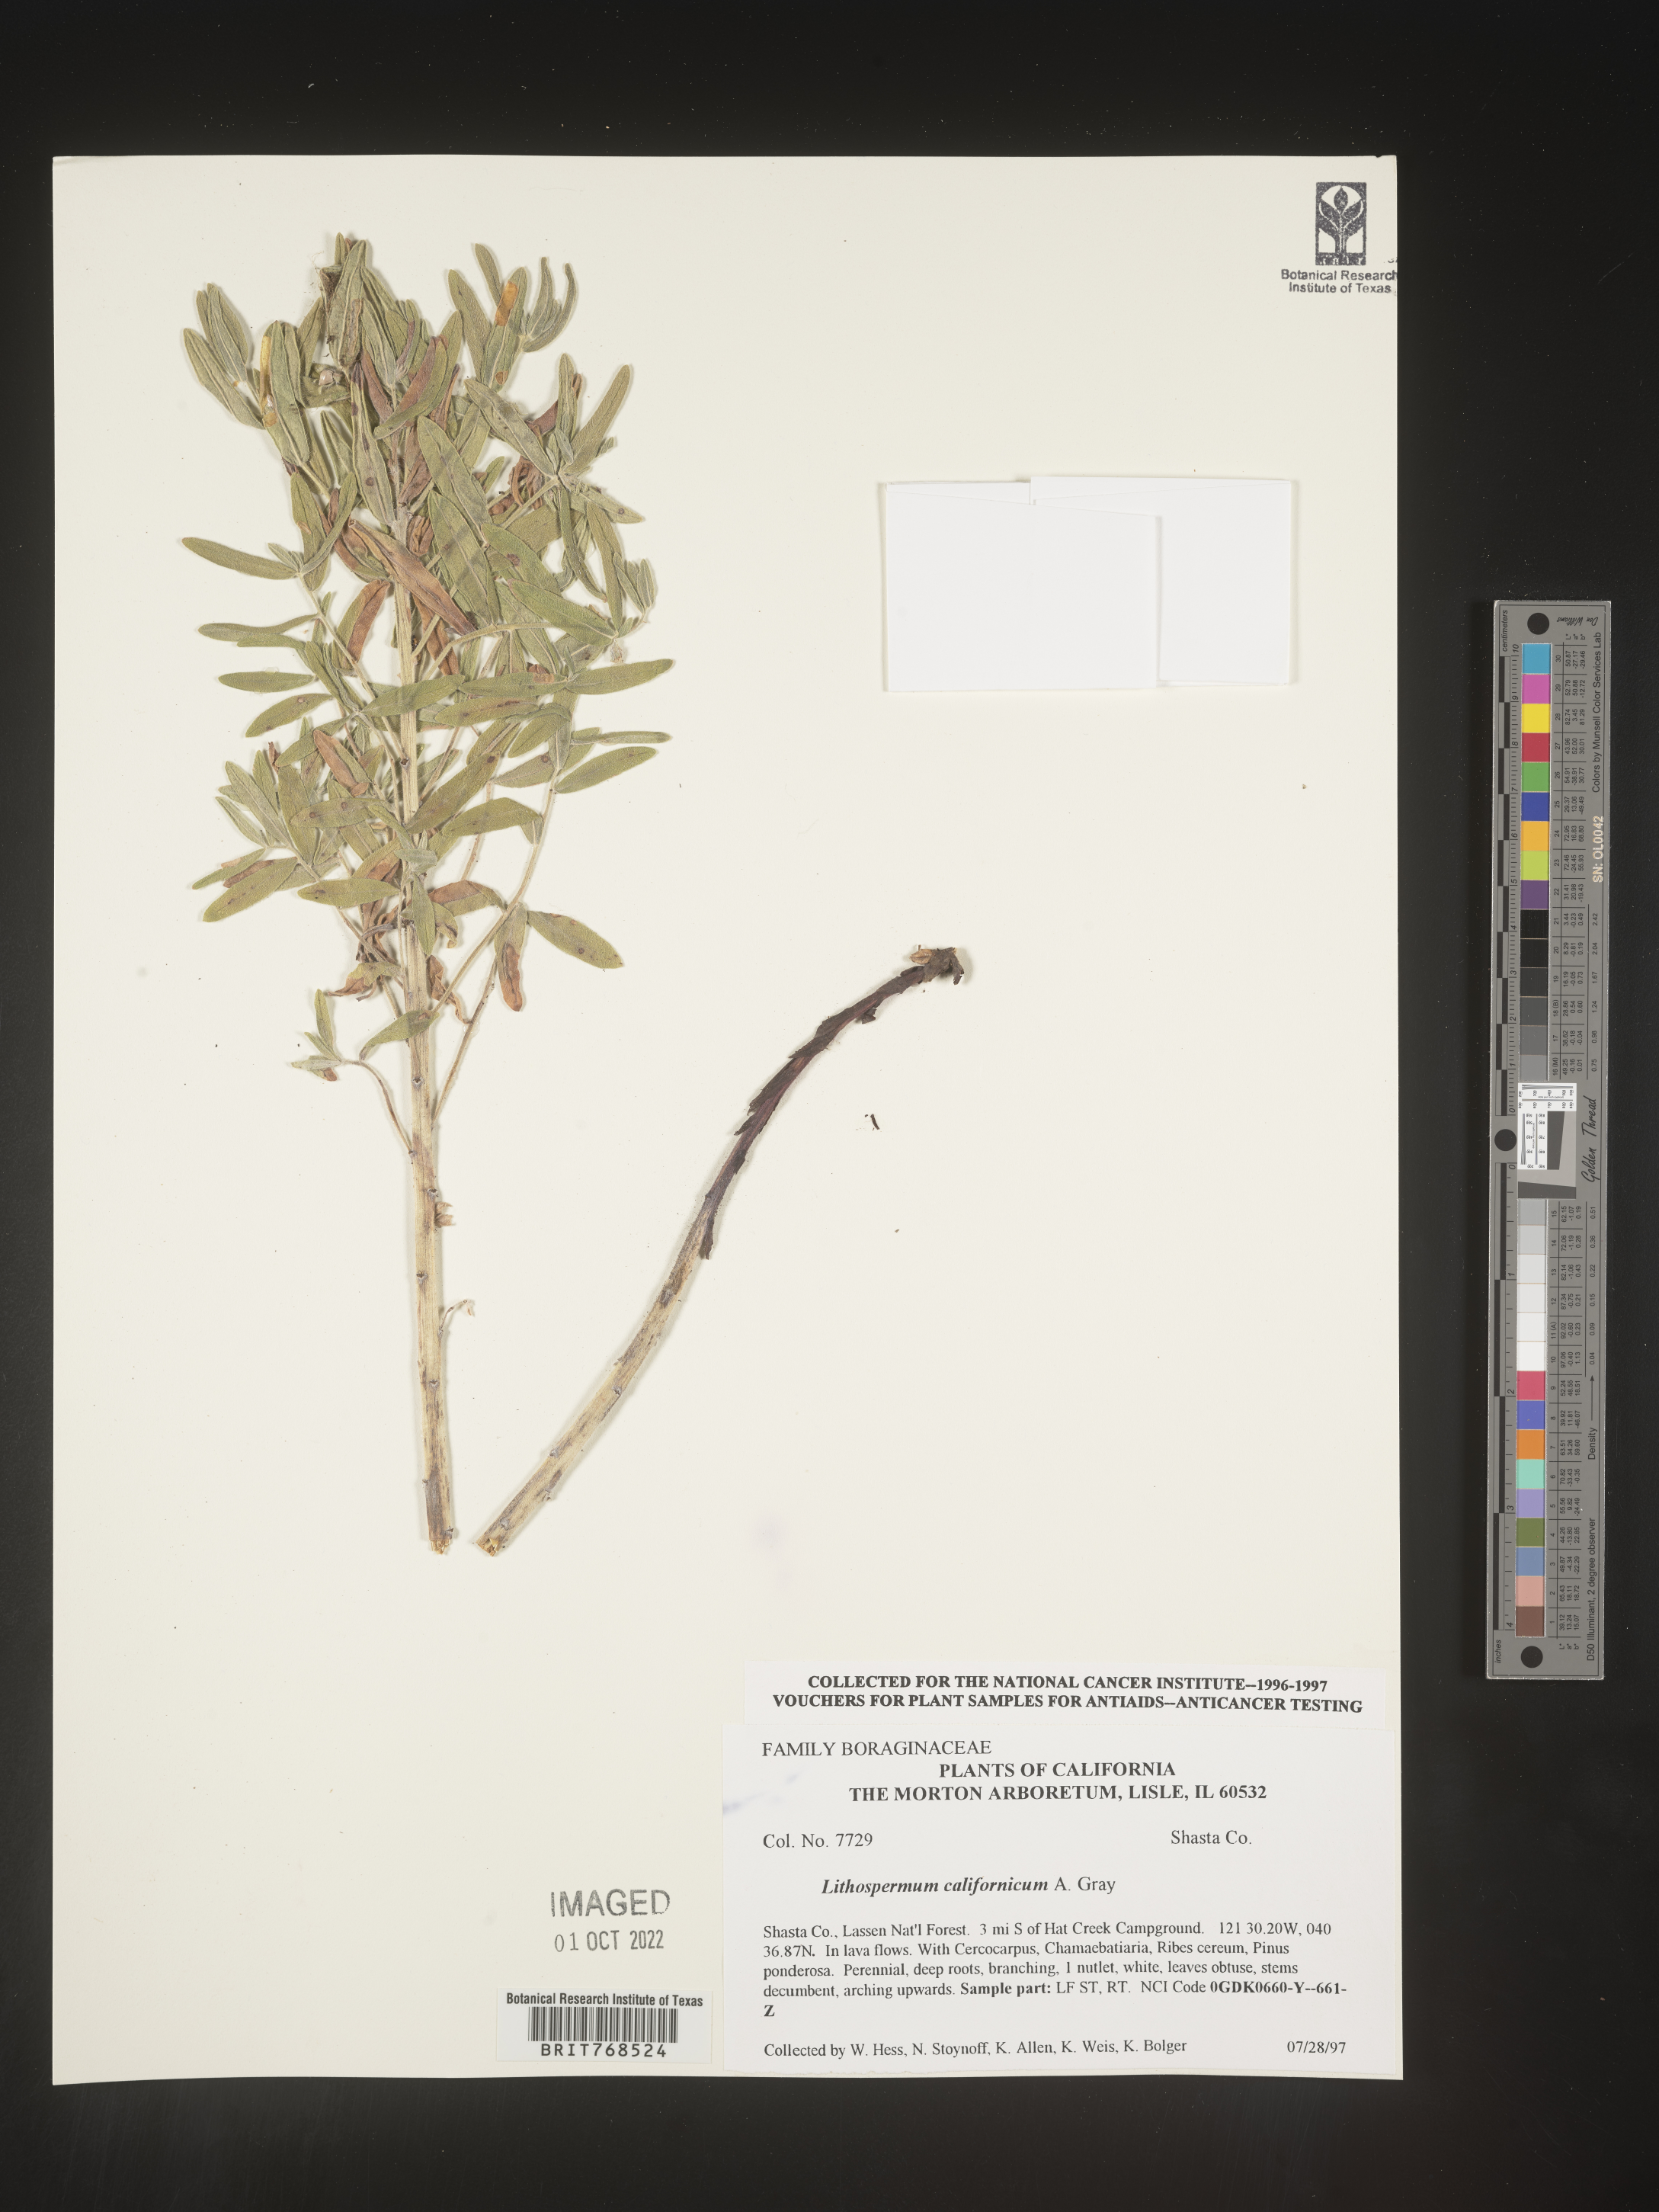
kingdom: Plantae
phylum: Tracheophyta
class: Magnoliopsida
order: Boraginales
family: Boraginaceae
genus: Lithospermum
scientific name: Lithospermum
